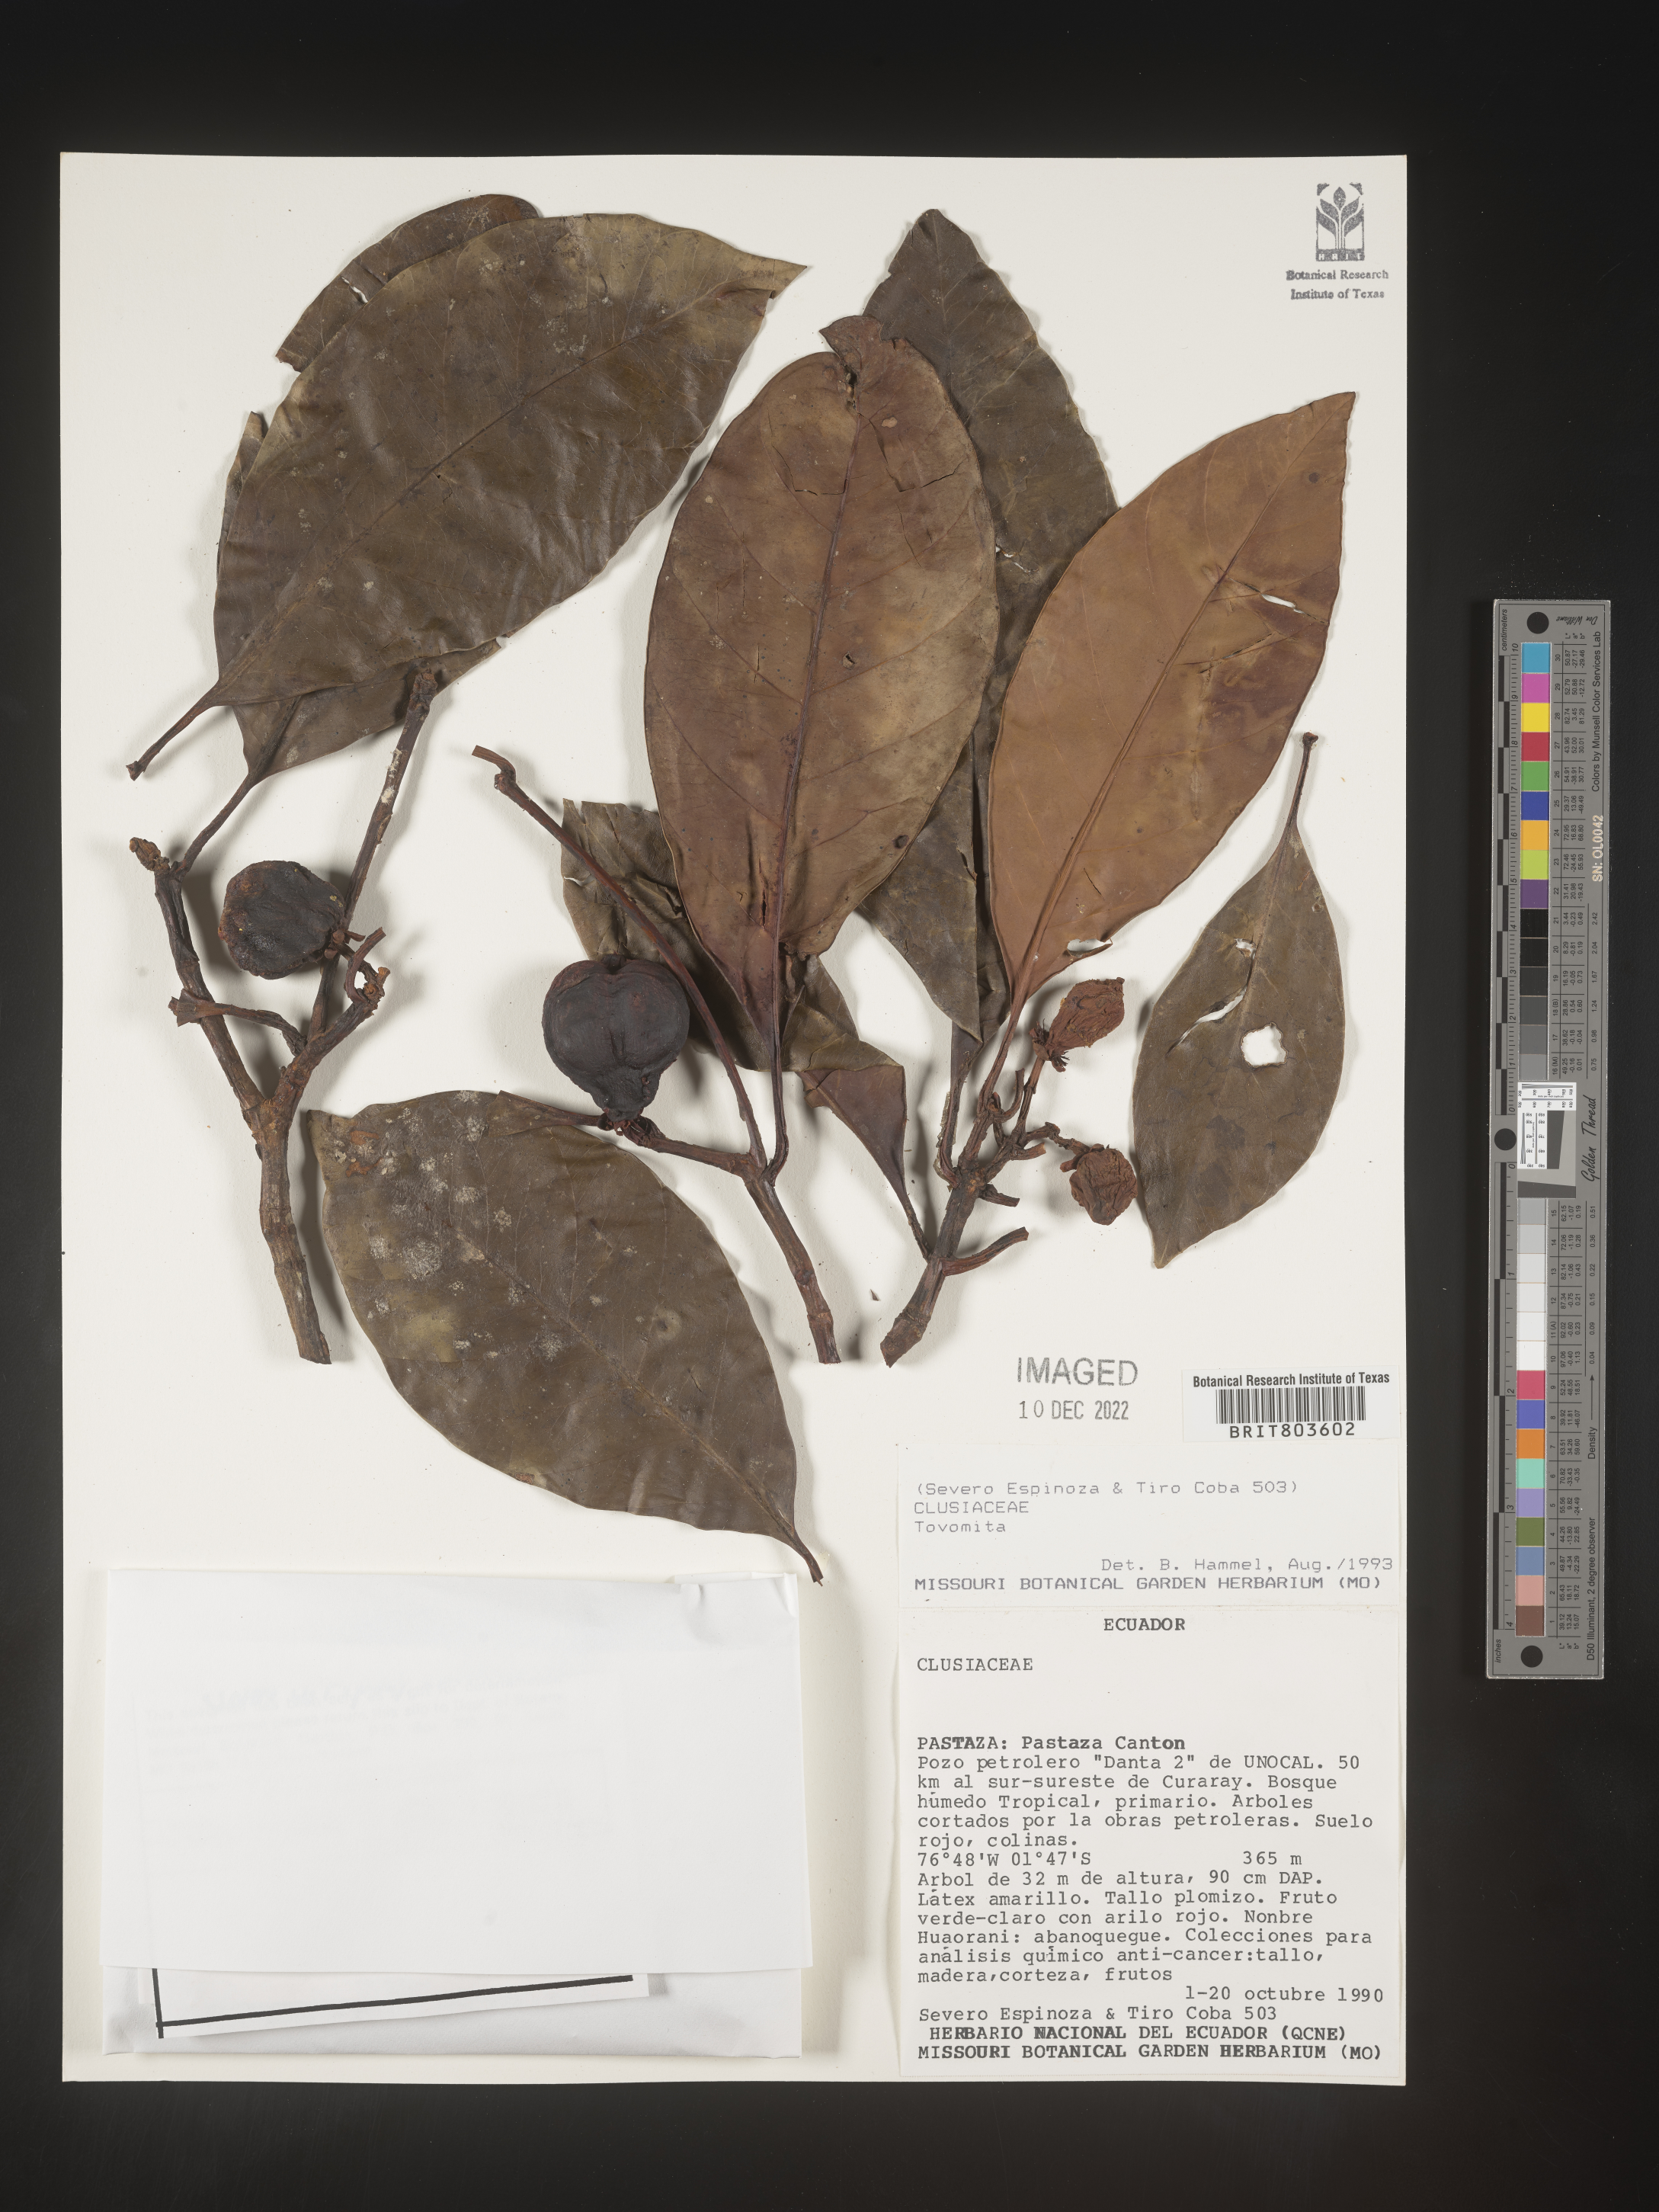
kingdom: Plantae
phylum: Tracheophyta
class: Magnoliopsida
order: Malpighiales
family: Clusiaceae
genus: Tovomita
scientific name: Tovomita
